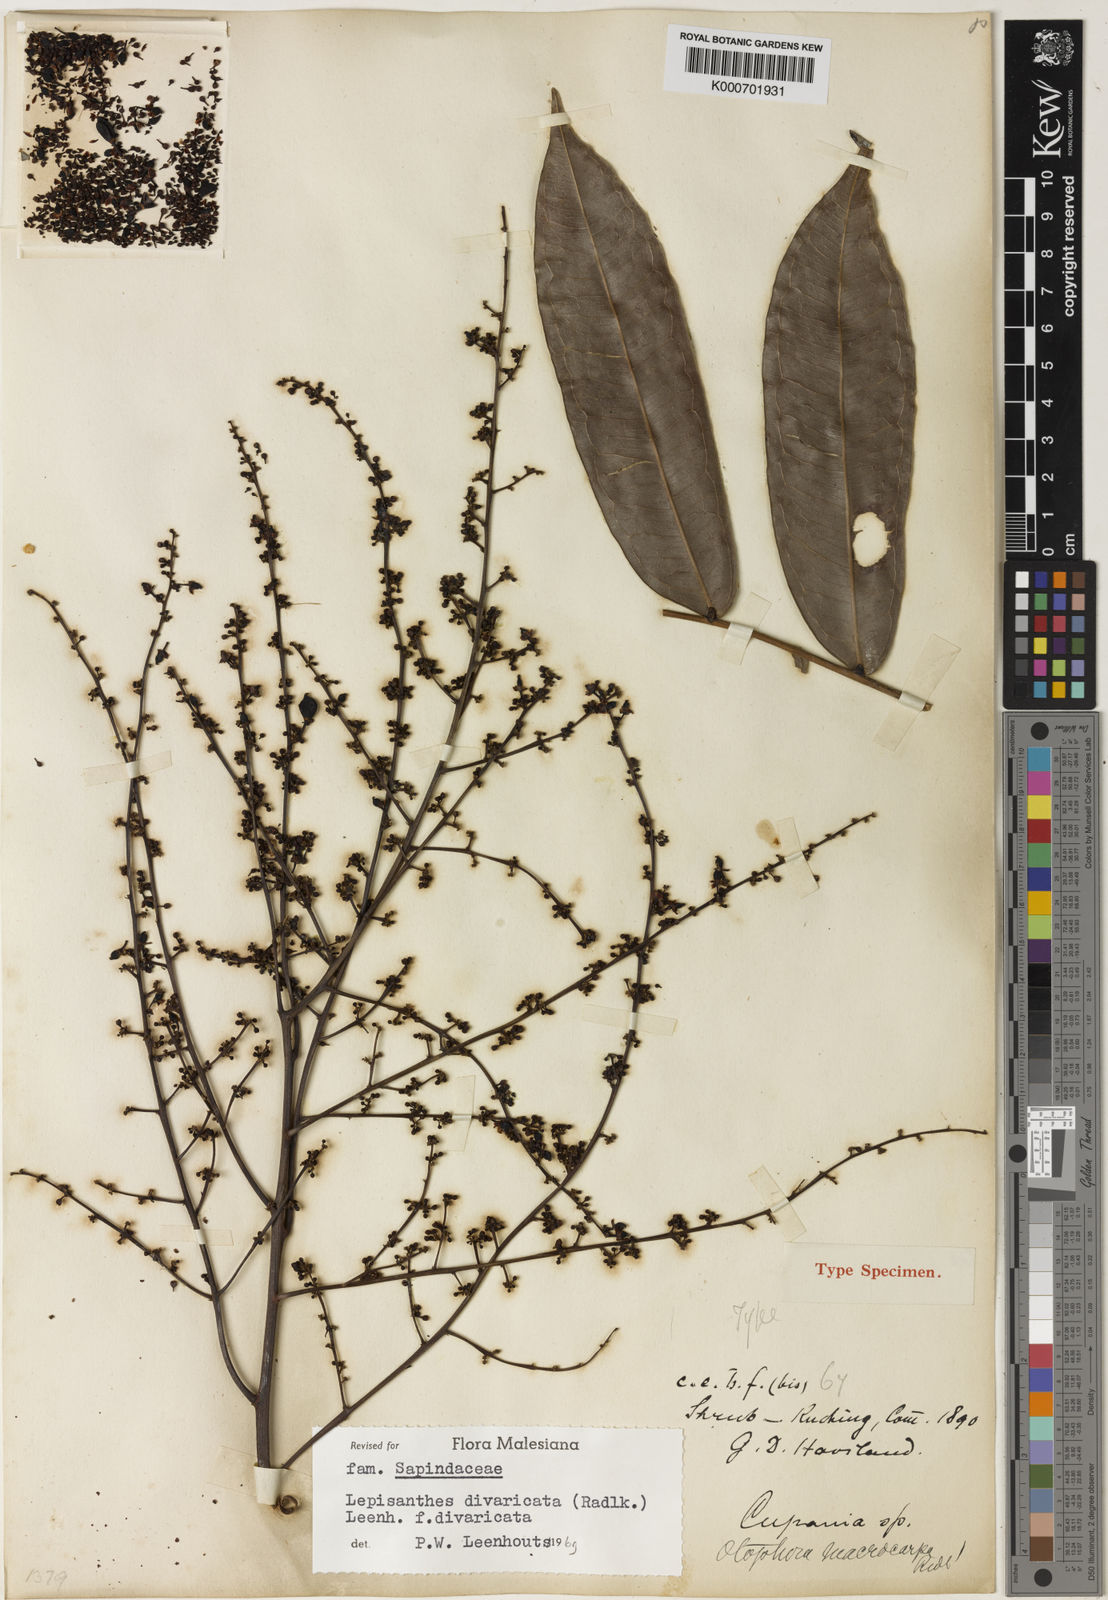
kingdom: Plantae
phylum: Tracheophyta
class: Magnoliopsida
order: Sapindales
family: Sapindaceae
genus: Lepisanthes
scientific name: Lepisanthes divaricata
